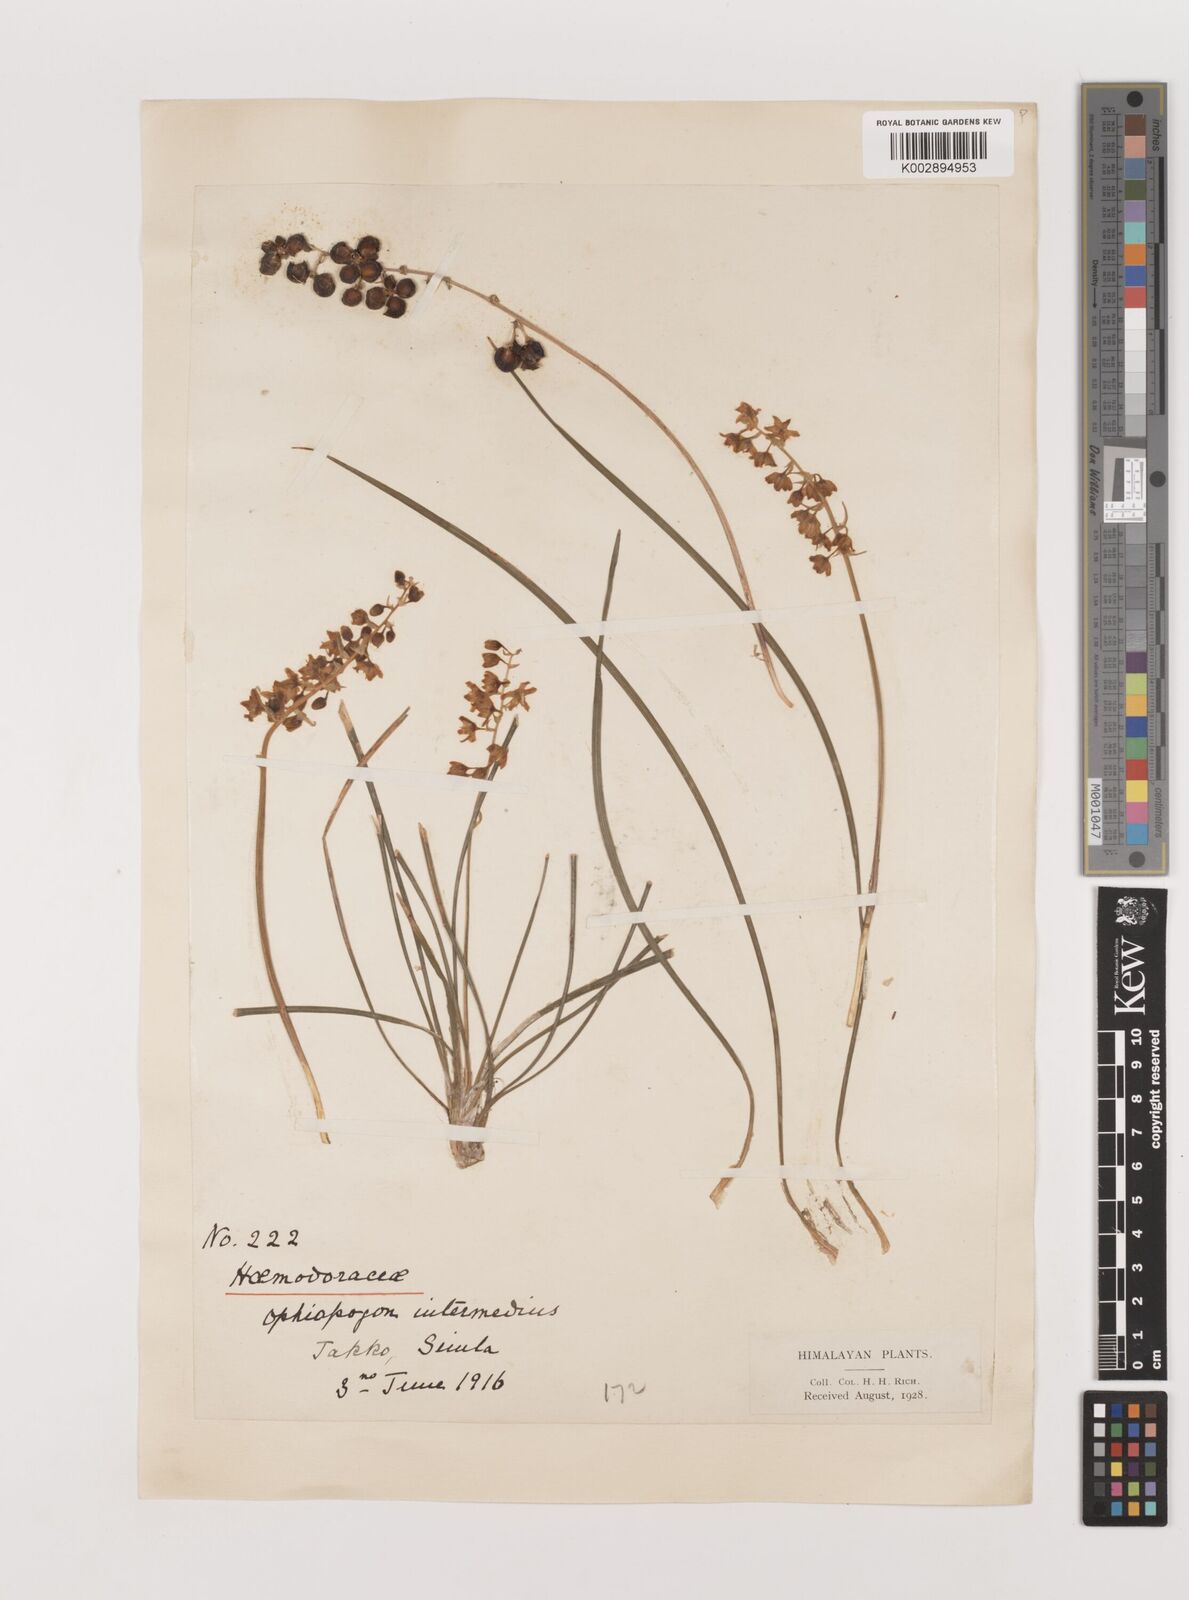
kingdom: Plantae
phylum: Tracheophyta
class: Liliopsida
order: Asparagales
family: Asparagaceae
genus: Ophiopogon
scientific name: Ophiopogon intermedius
